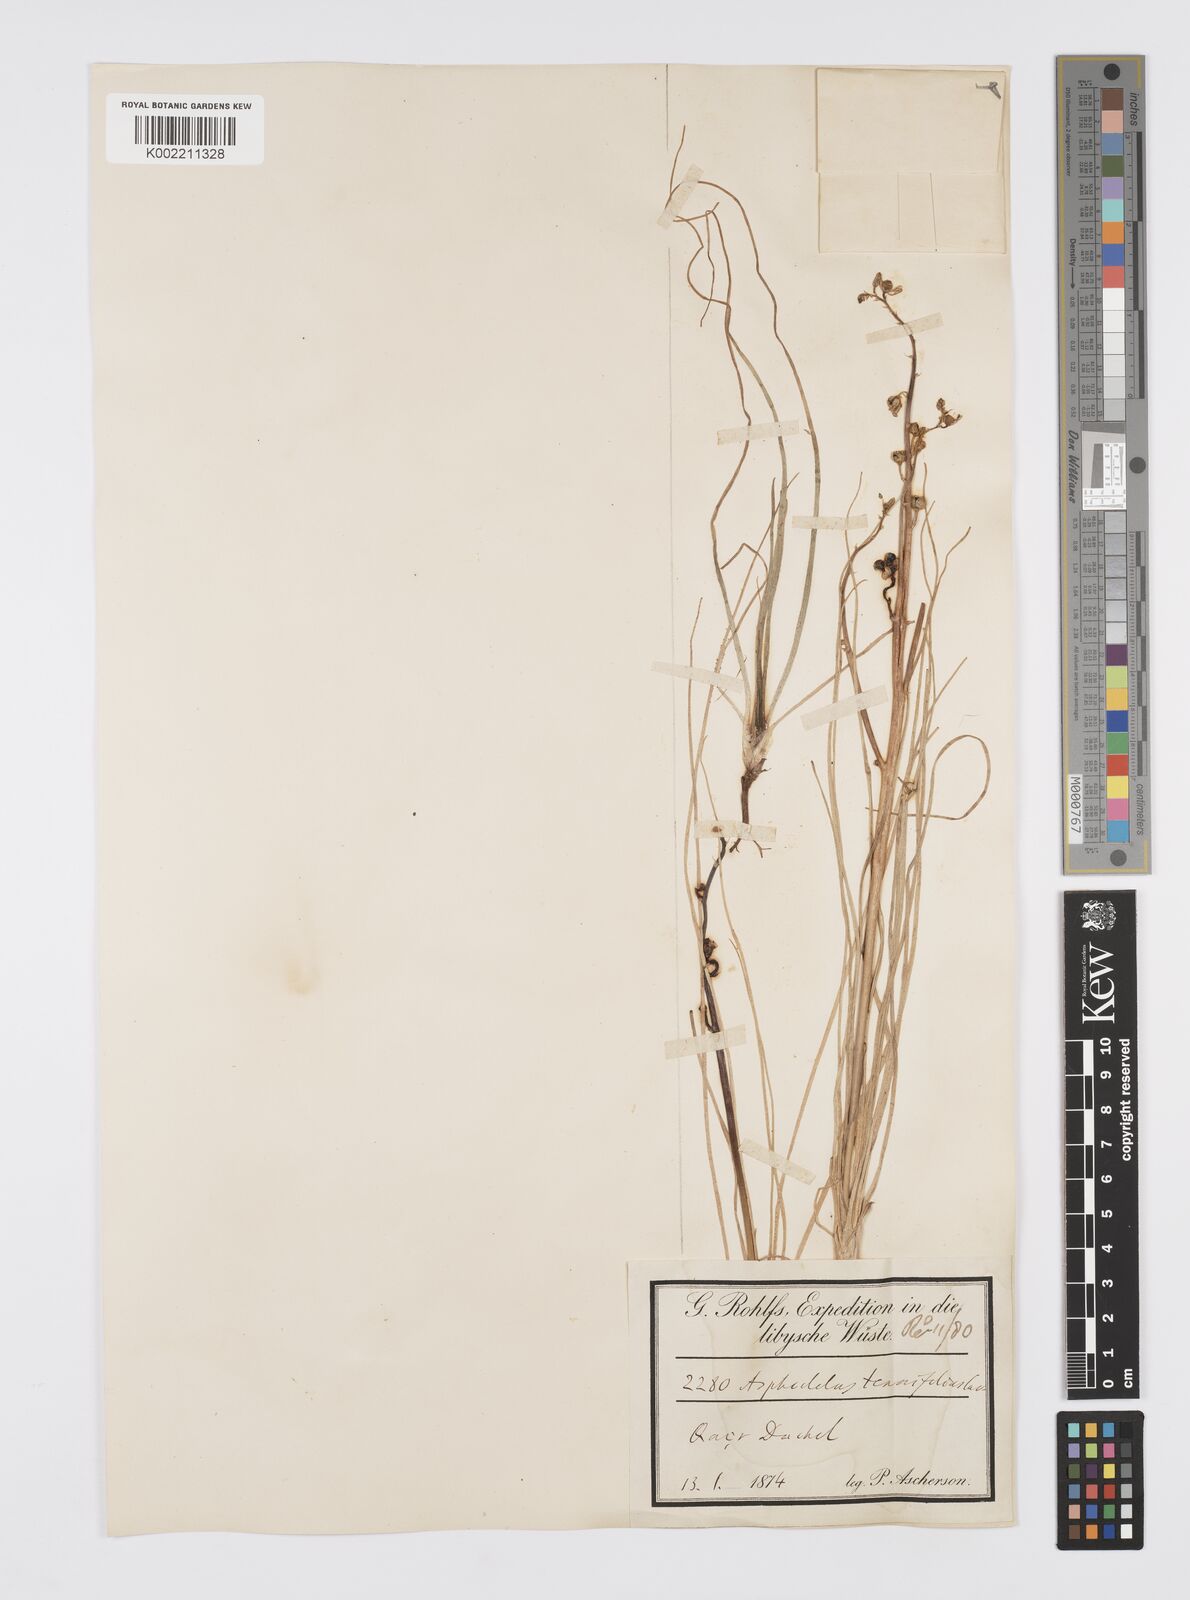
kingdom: Plantae
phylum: Tracheophyta
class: Liliopsida
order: Asparagales
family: Asphodelaceae
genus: Asphodelus
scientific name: Asphodelus tenuifolius
